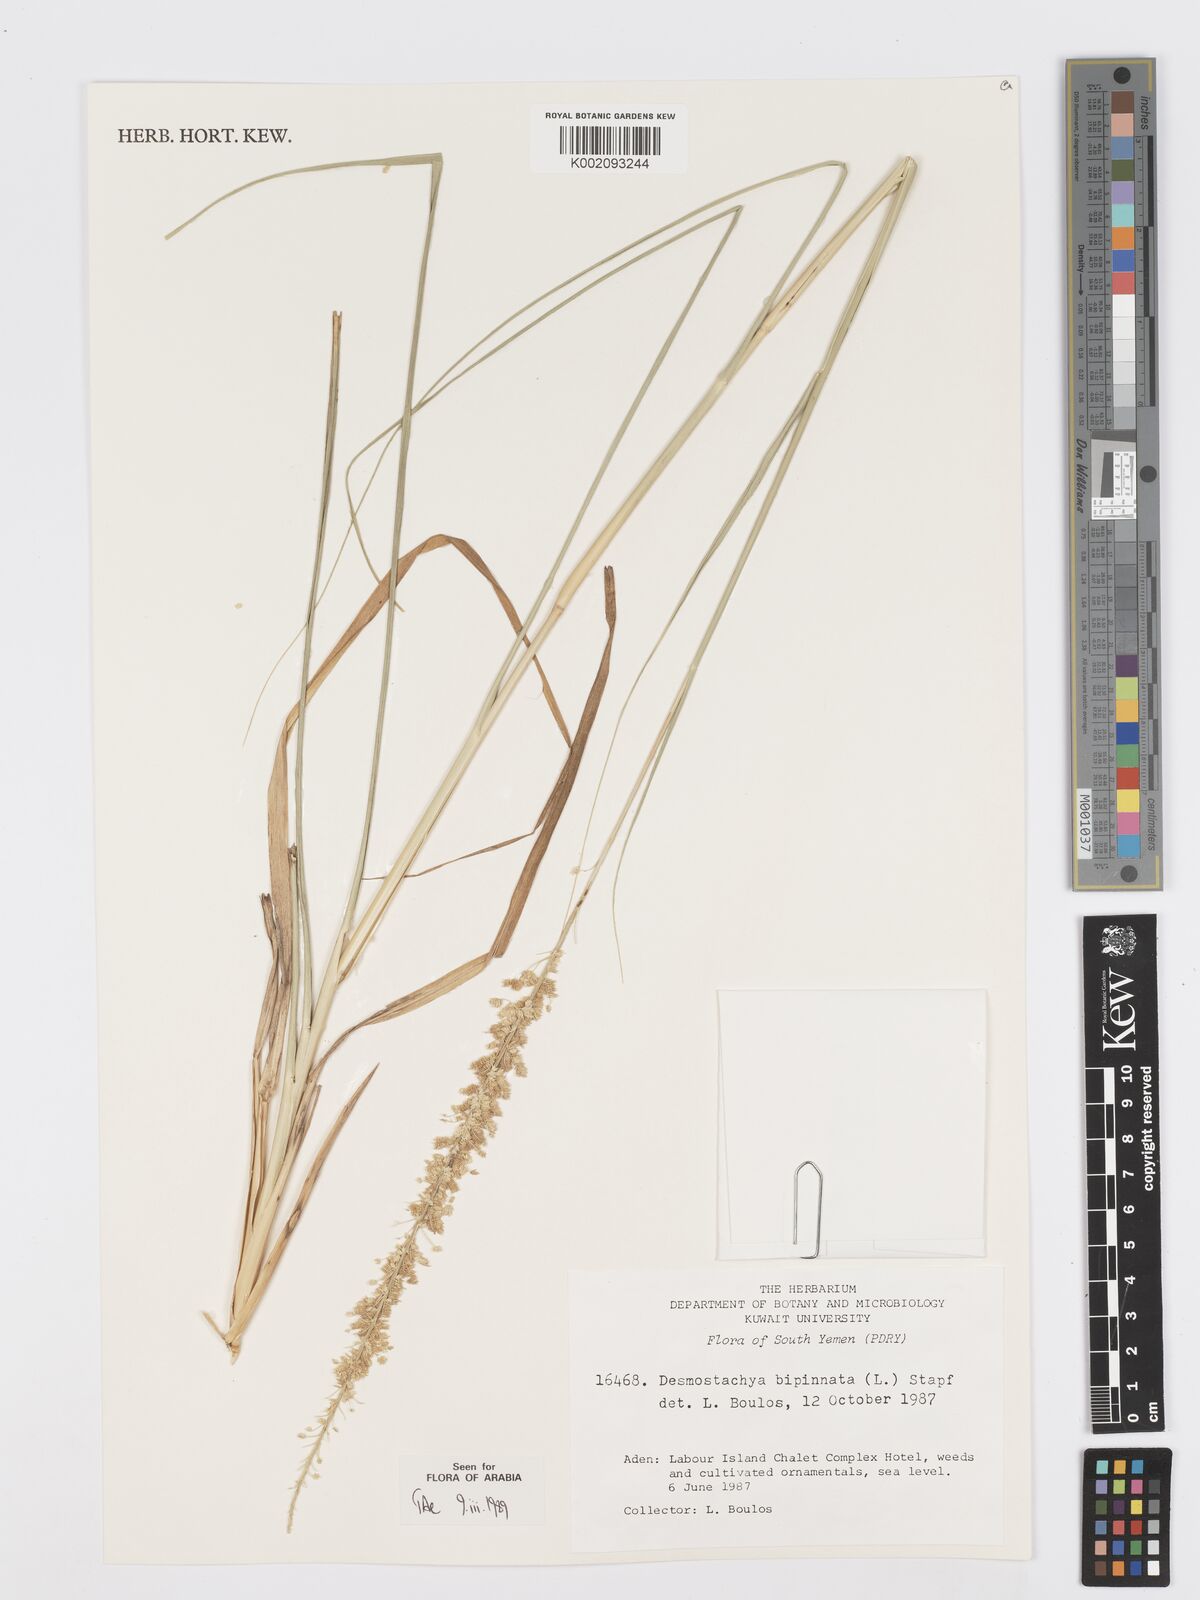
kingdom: Plantae
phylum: Tracheophyta
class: Liliopsida
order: Poales
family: Poaceae
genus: Desmostachya
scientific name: Desmostachya bipinnata
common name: Crowfoot grass
